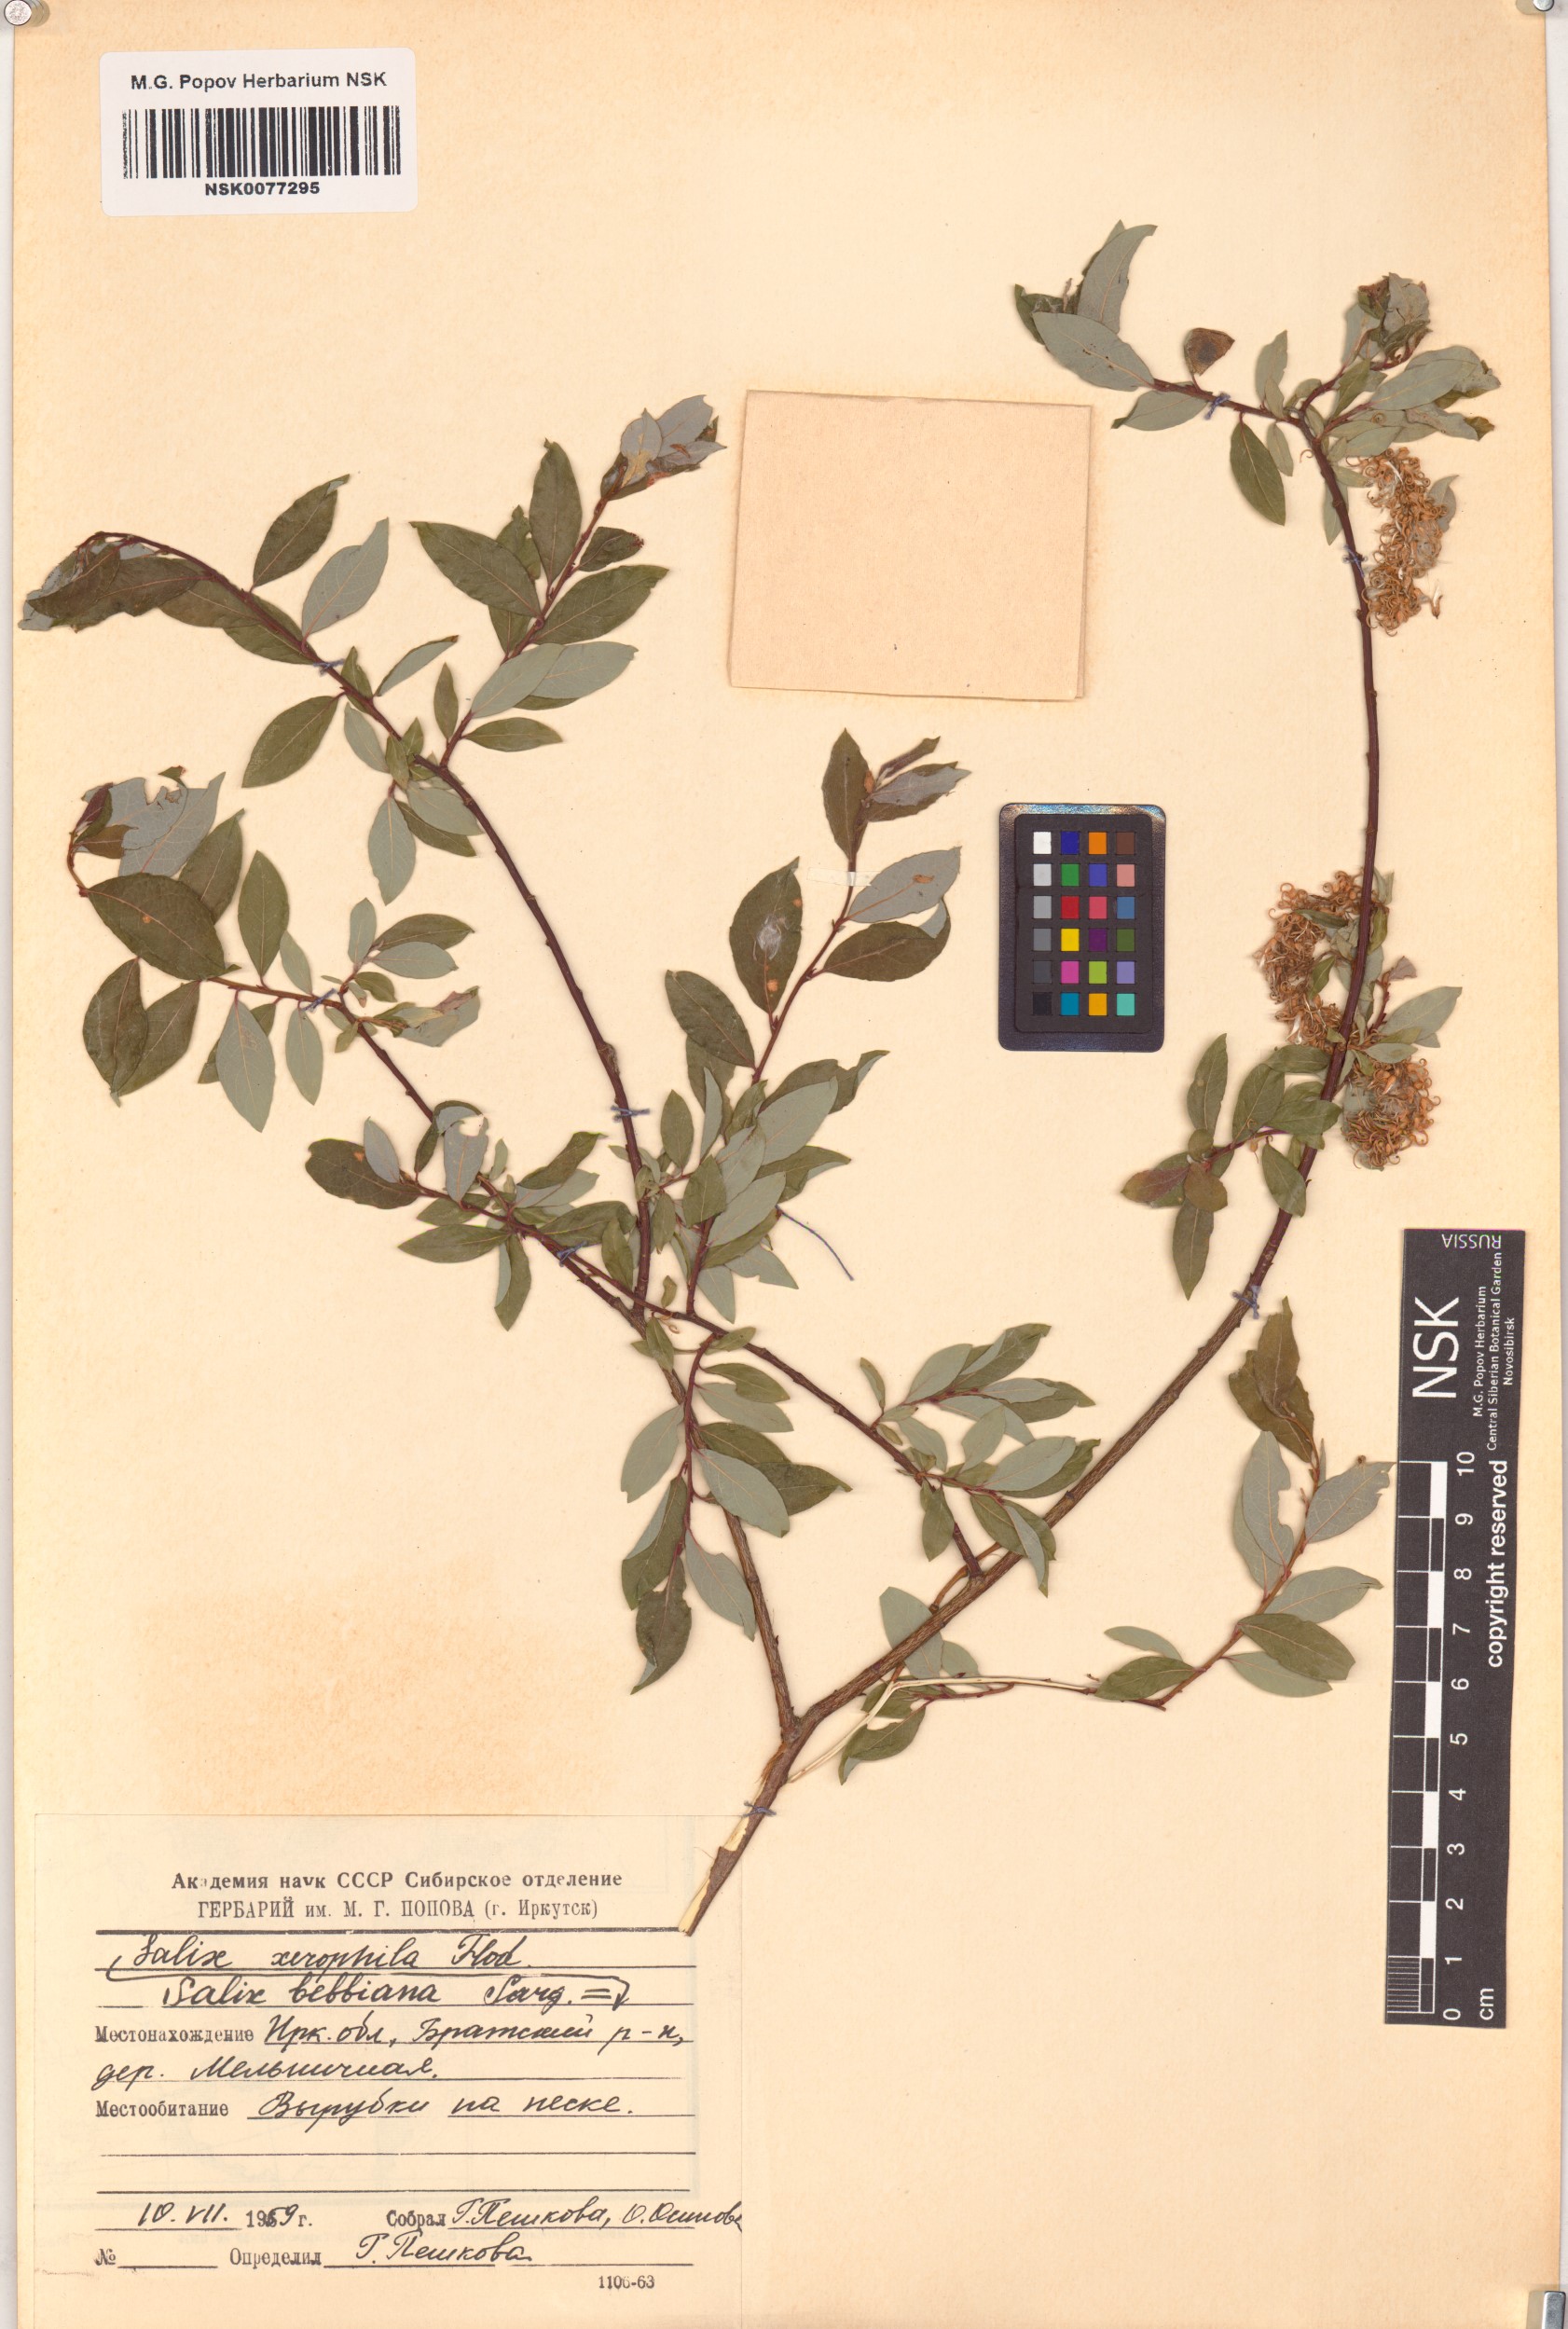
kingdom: Plantae
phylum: Tracheophyta
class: Magnoliopsida
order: Malpighiales
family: Salicaceae
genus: Salix
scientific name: Salix bebbiana
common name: Bebb's willow
